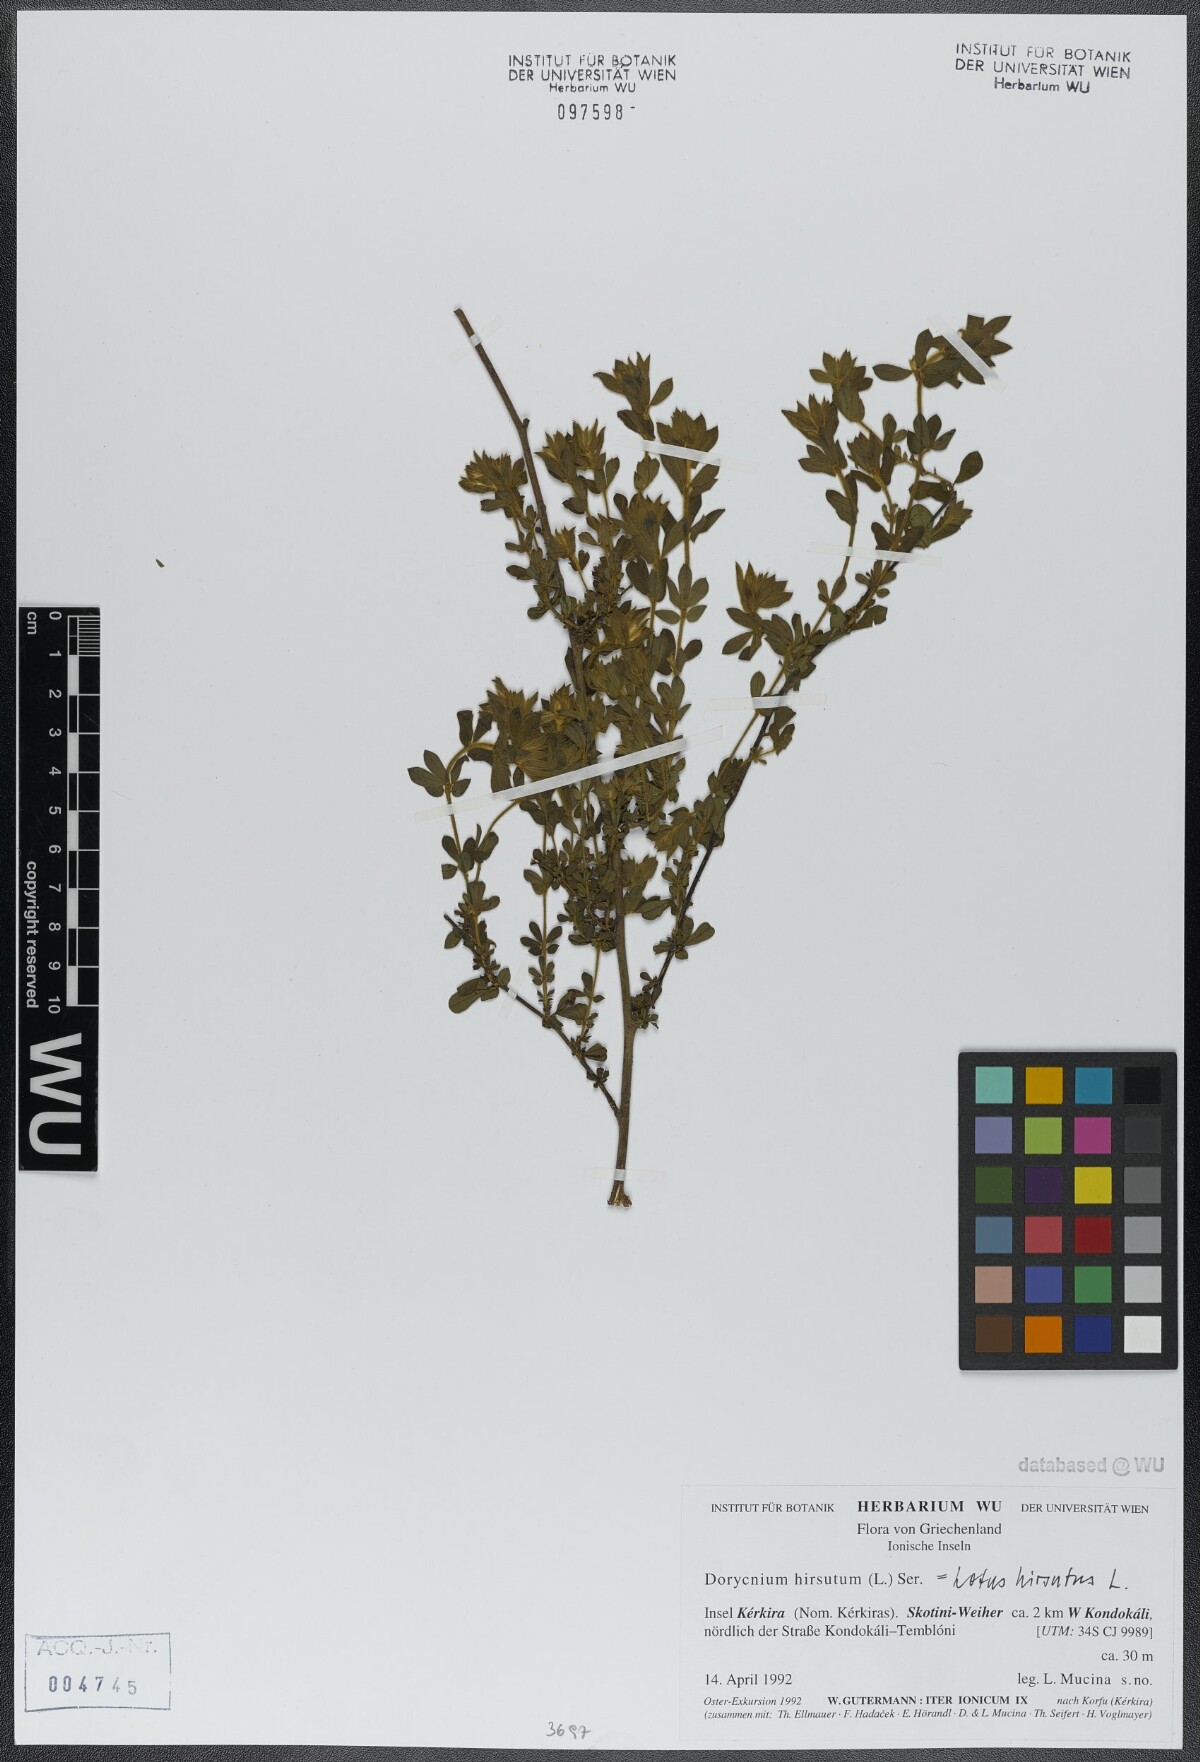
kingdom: Plantae
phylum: Tracheophyta
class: Magnoliopsida
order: Fabales
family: Fabaceae
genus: Lotus
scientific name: Lotus hirsutus
